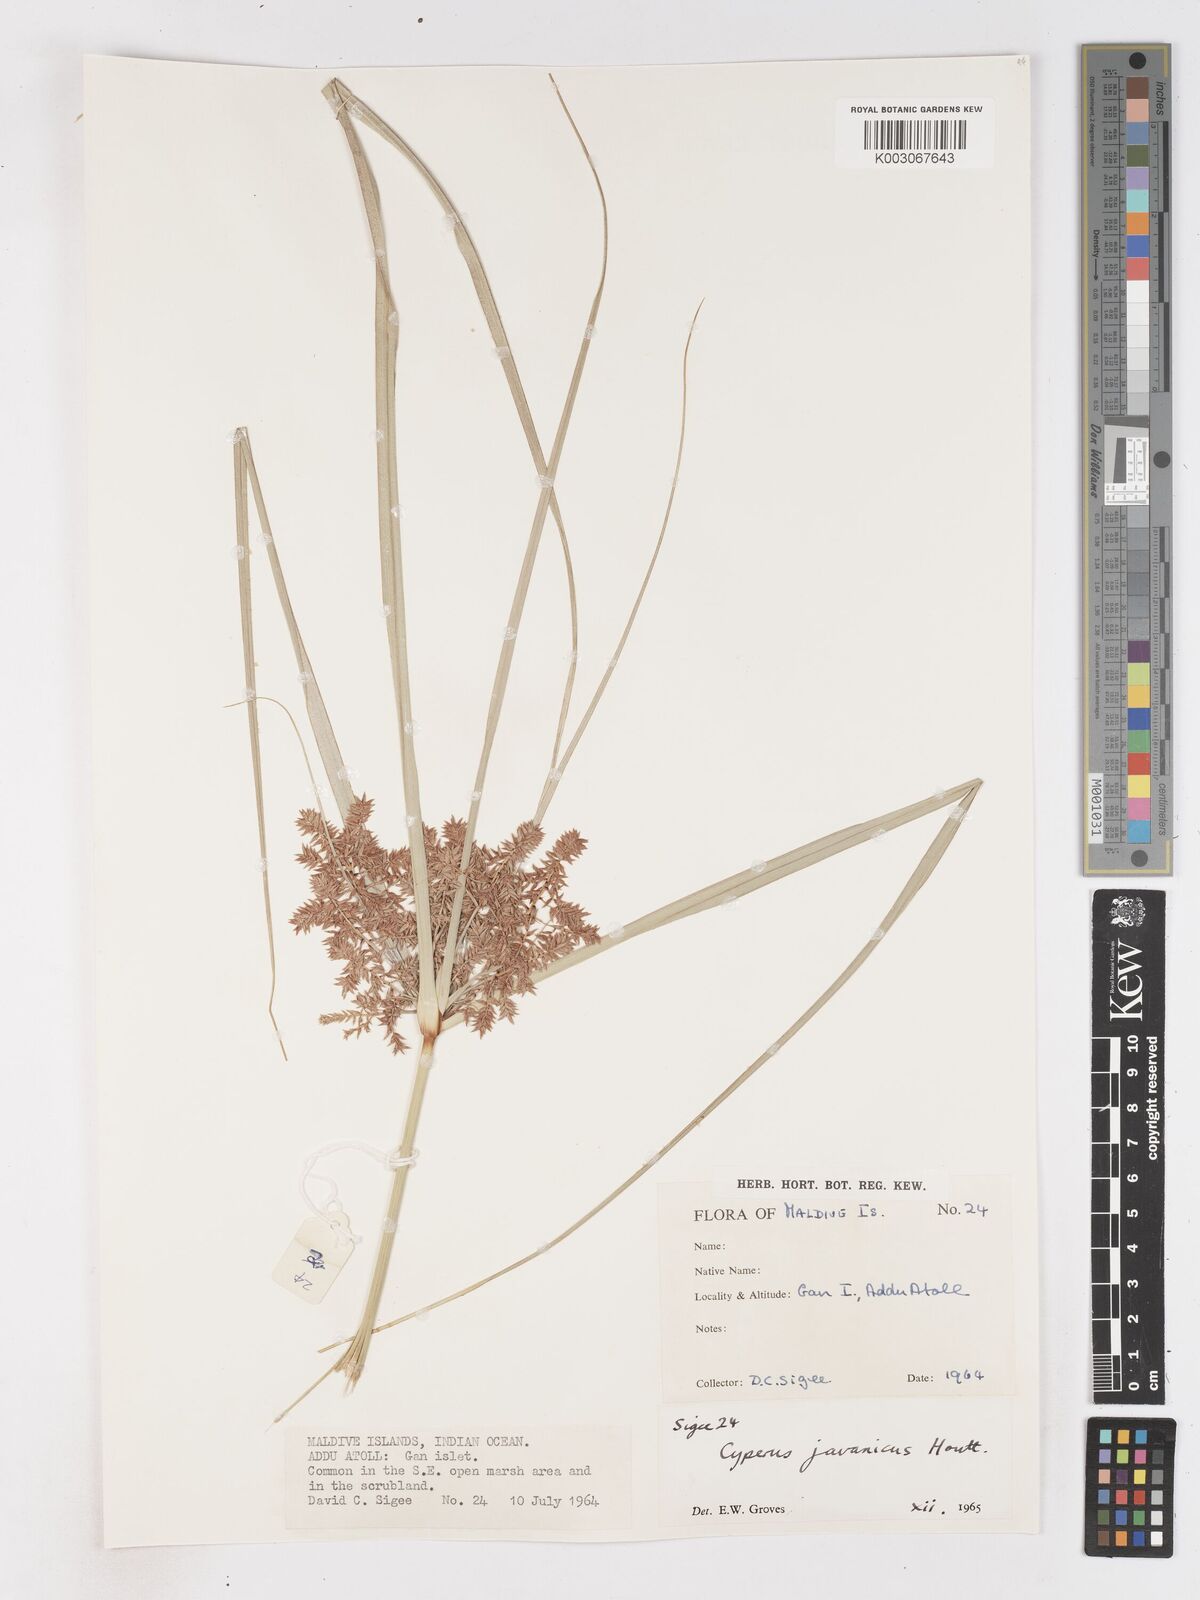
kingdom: Plantae
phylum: Tracheophyta
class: Liliopsida
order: Poales
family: Cyperaceae
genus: Cyperus
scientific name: Cyperus javanicus
